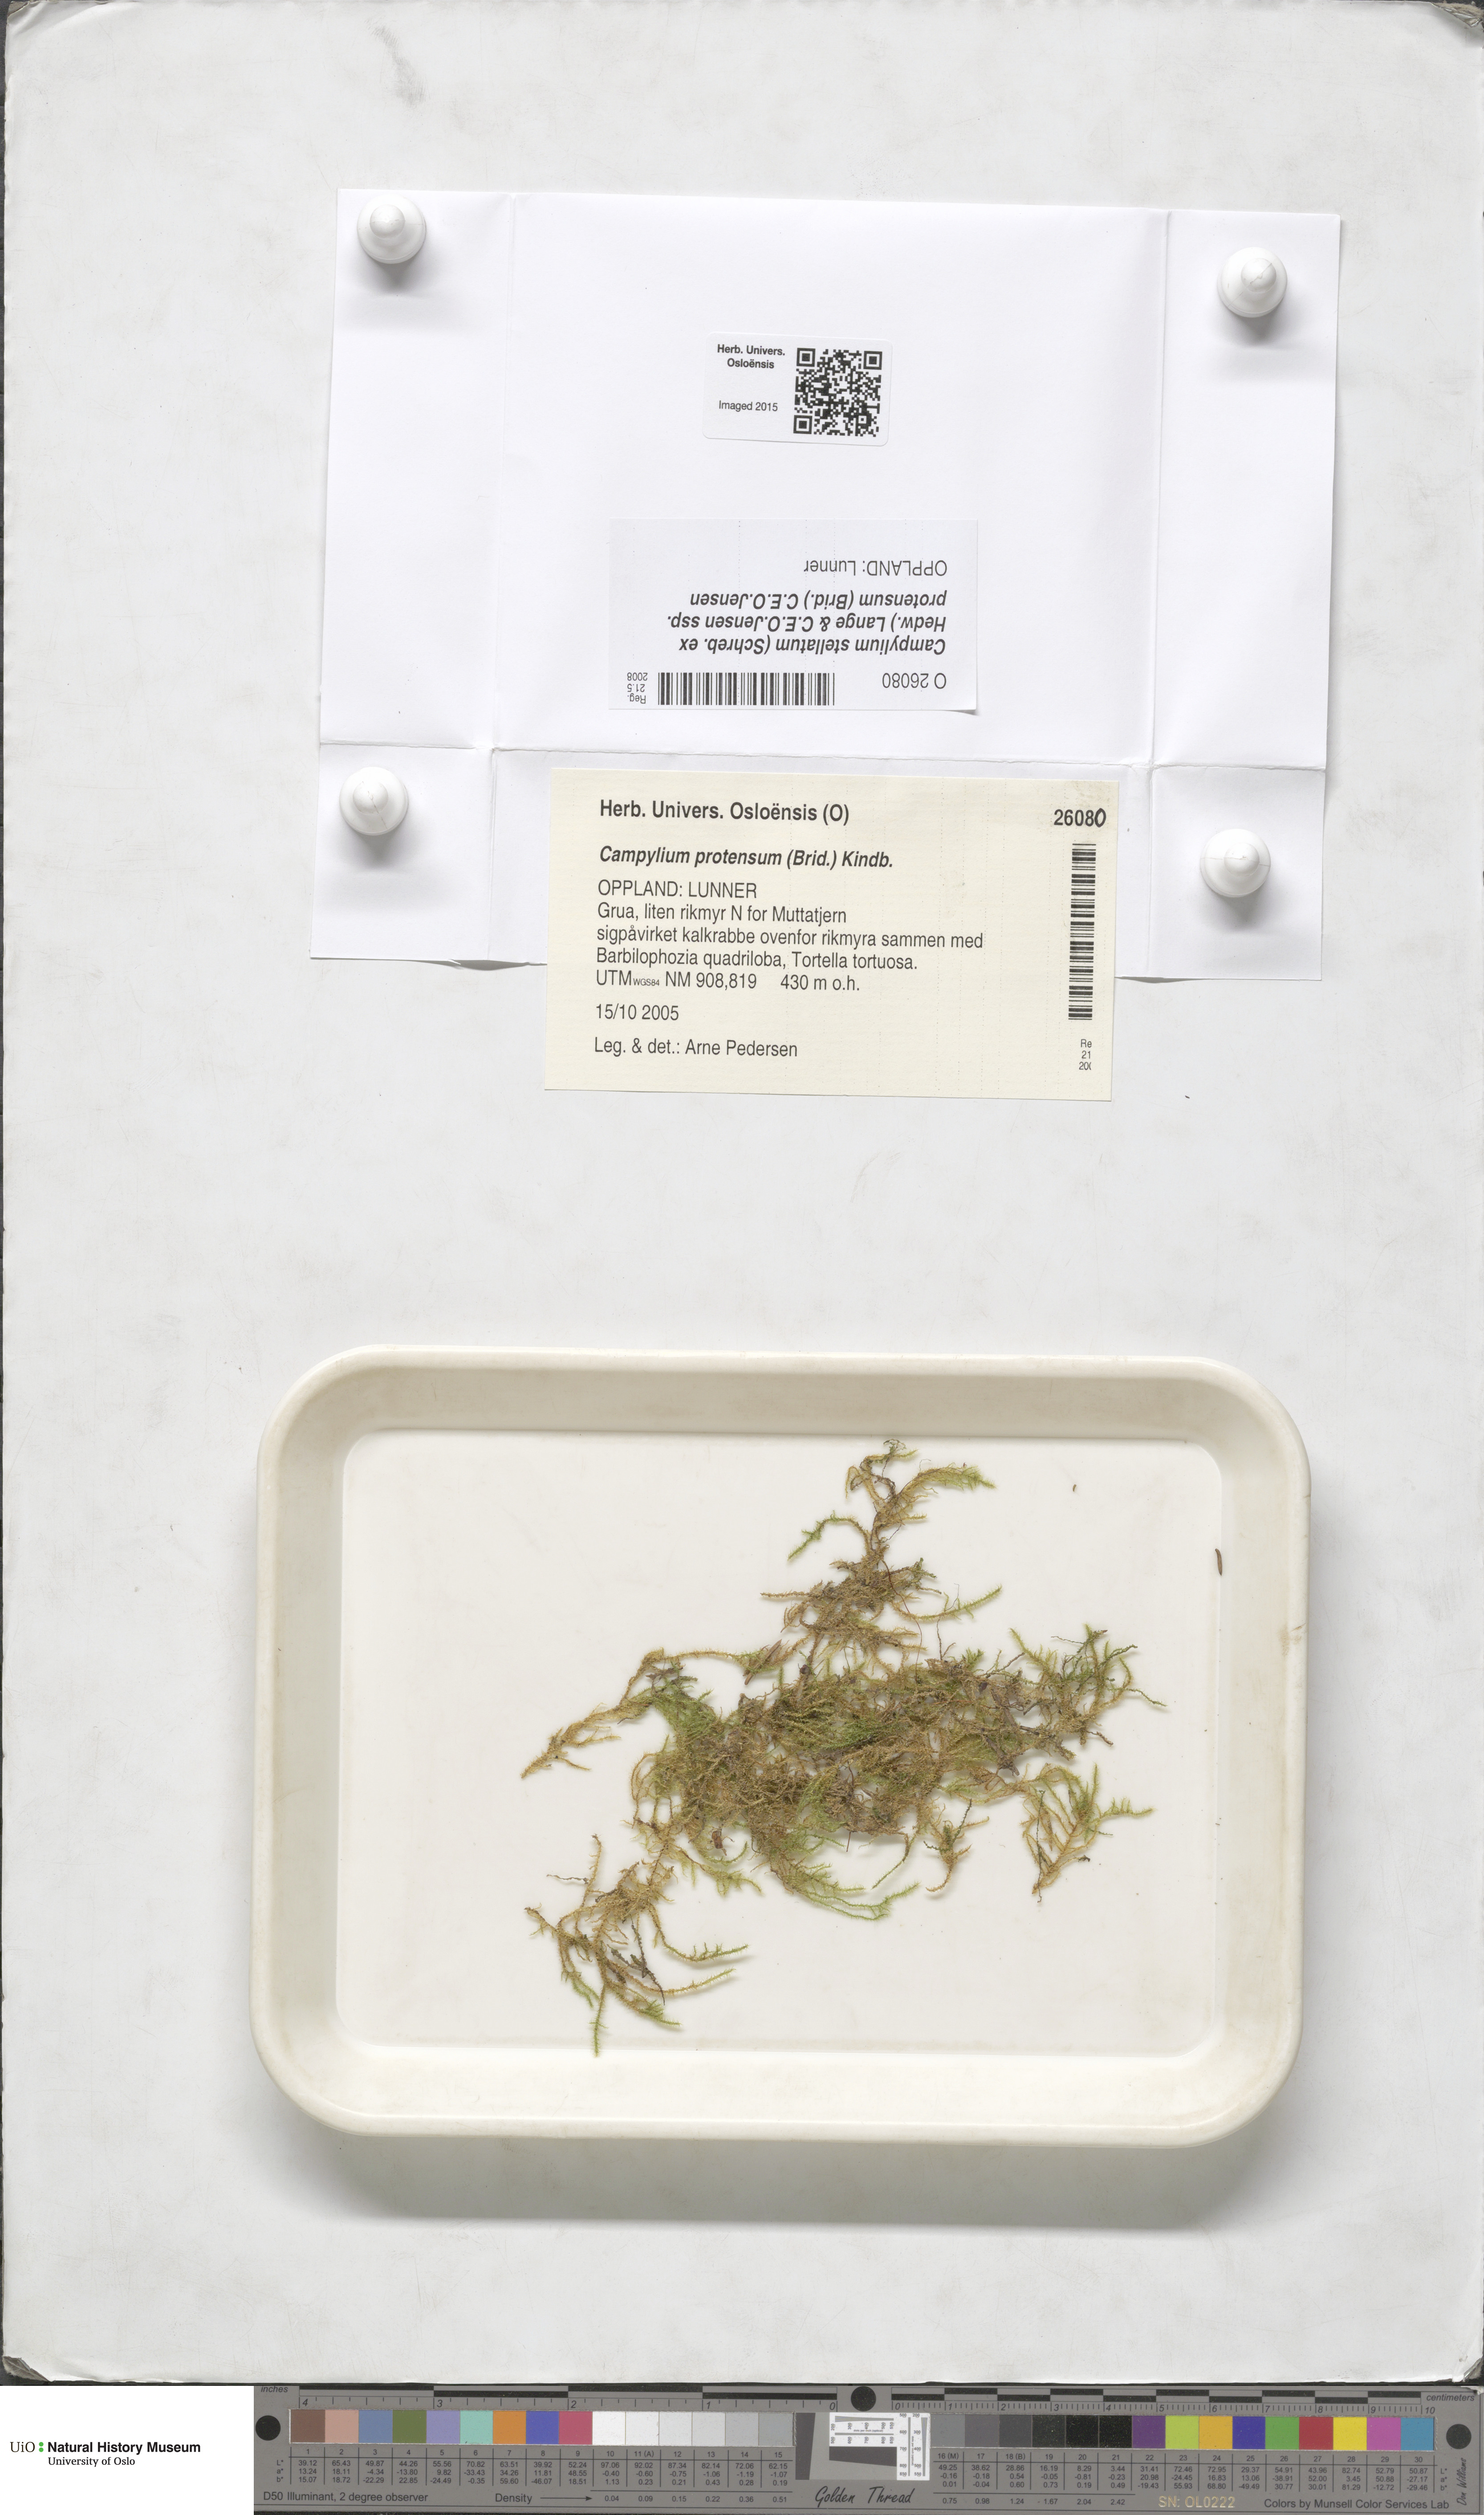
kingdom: Plantae
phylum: Bryophyta
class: Bryopsida
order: Hypnales
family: Amblystegiaceae
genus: Campylium
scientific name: Campylium protensum
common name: Dull starry fen moss
